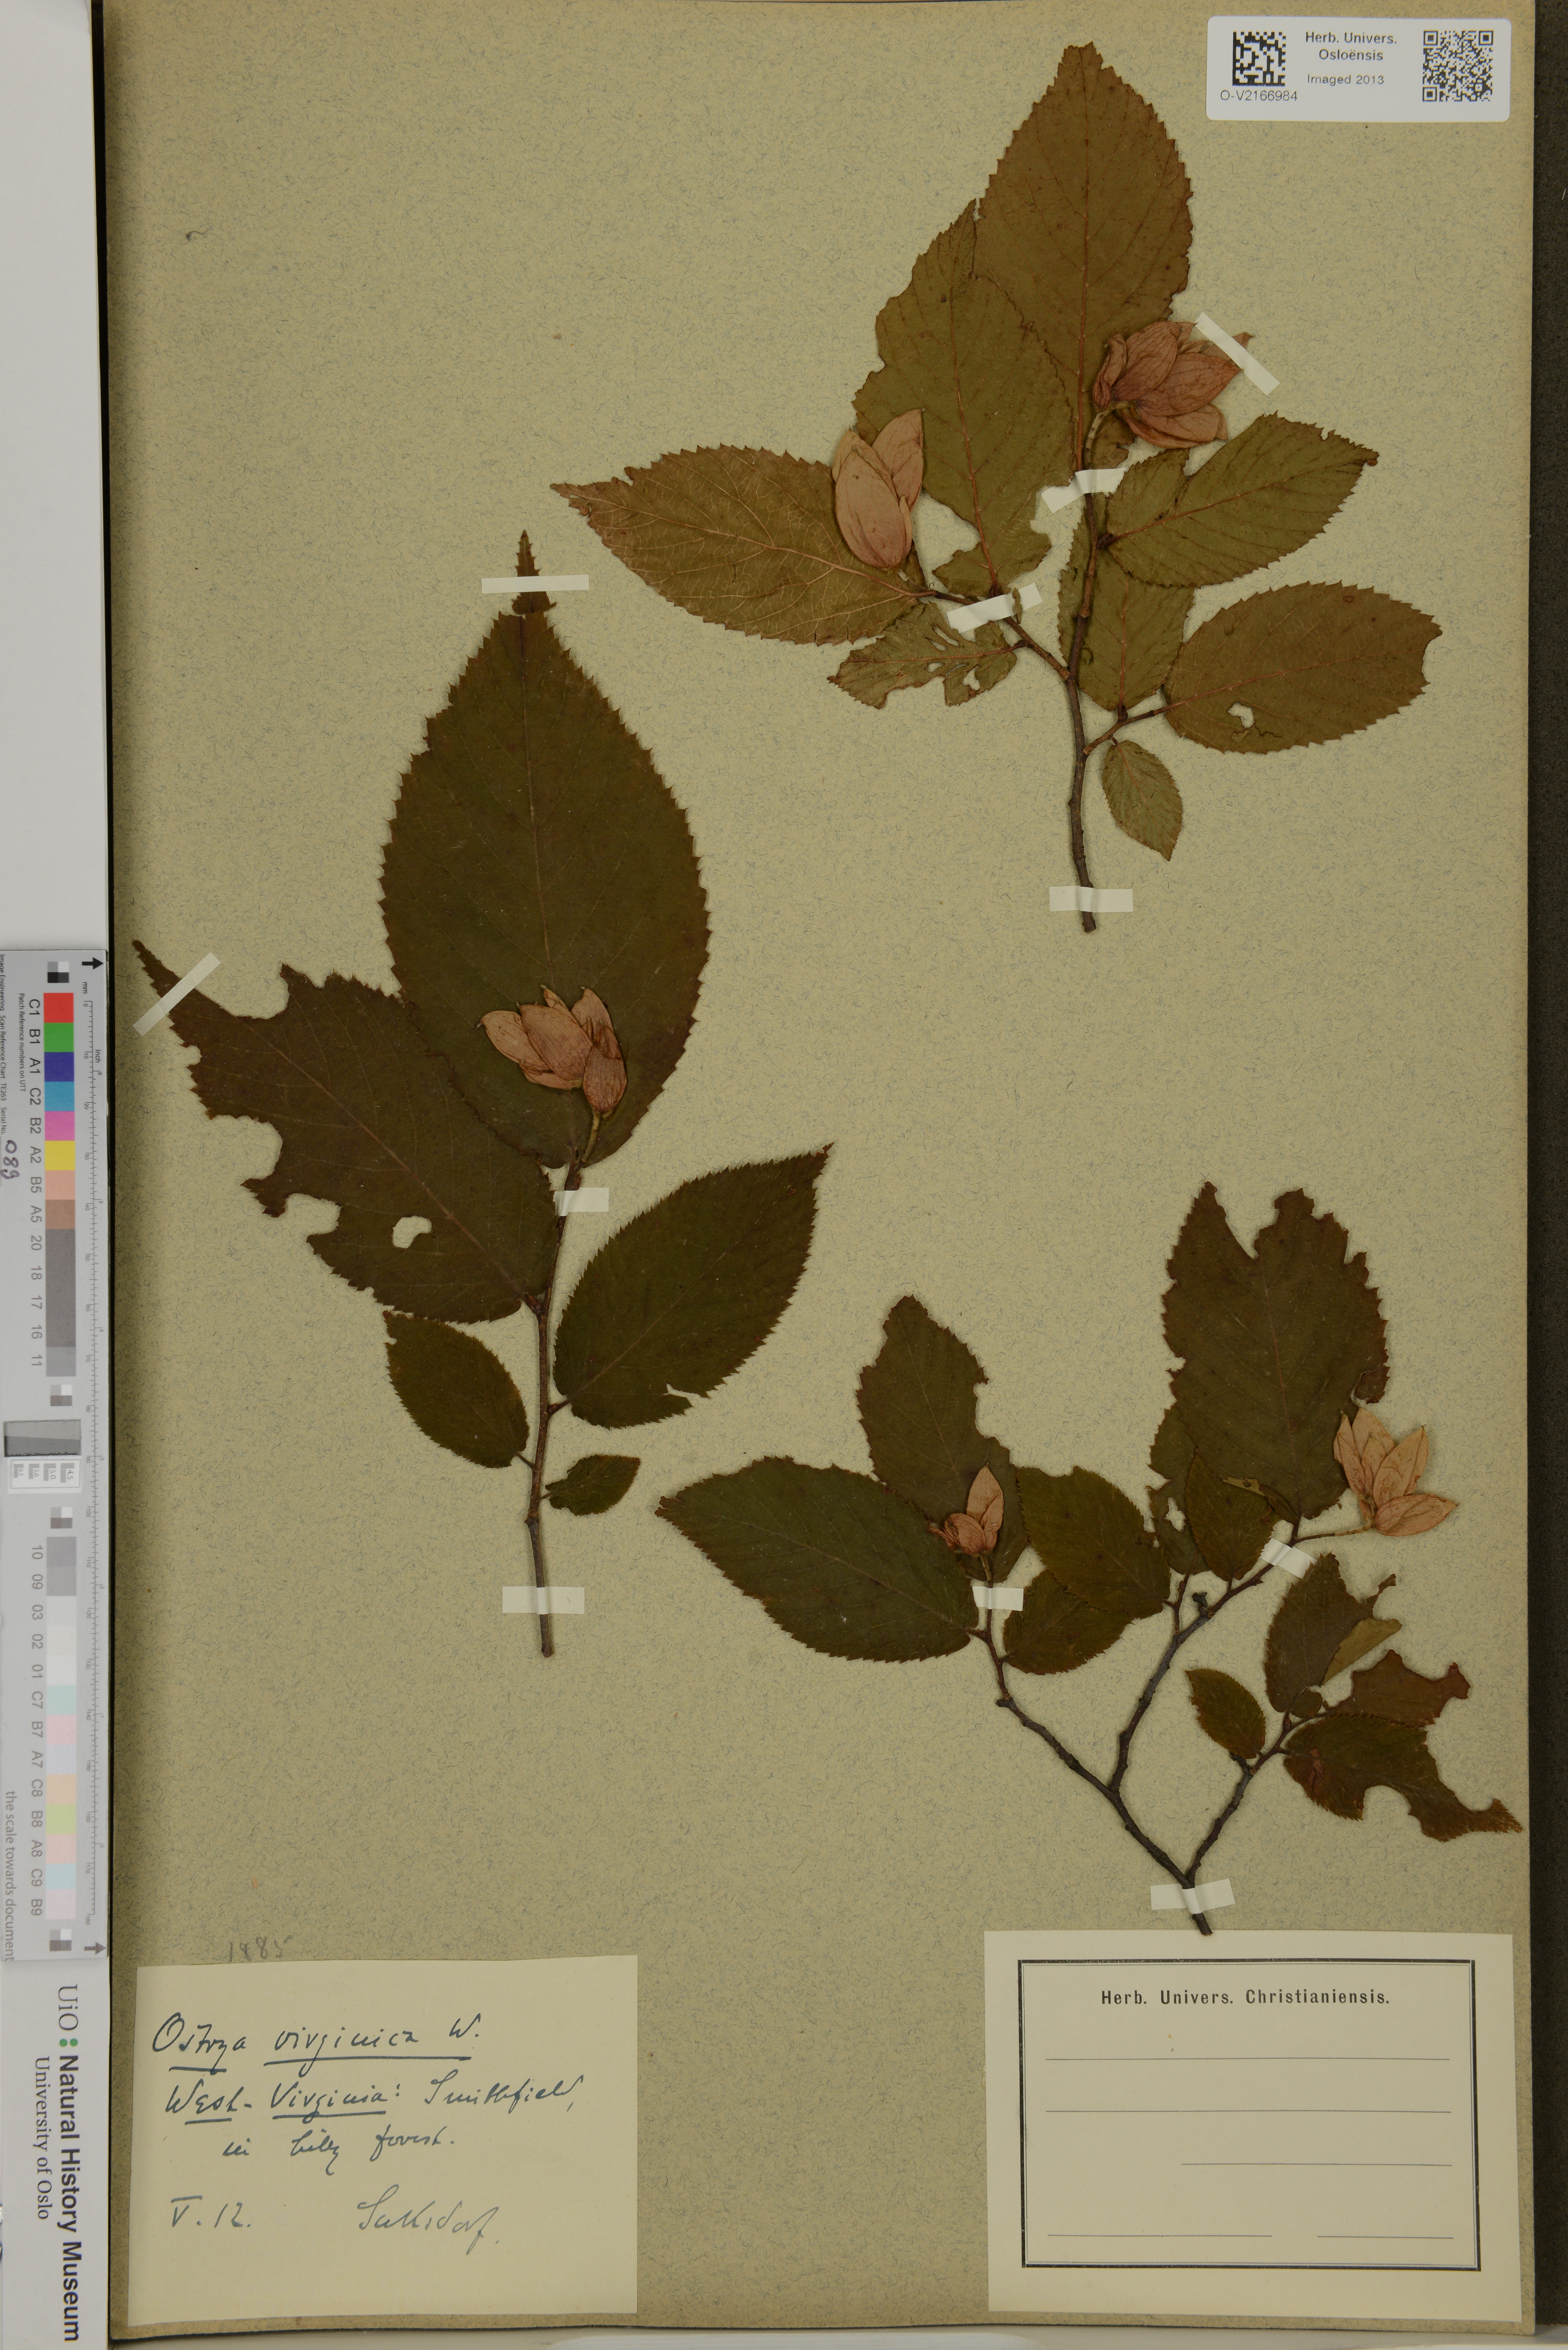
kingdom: Plantae
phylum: Tracheophyta
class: Magnoliopsida
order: Fagales
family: Betulaceae
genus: Ostrya
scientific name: Ostrya virginiana
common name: Ironwood
